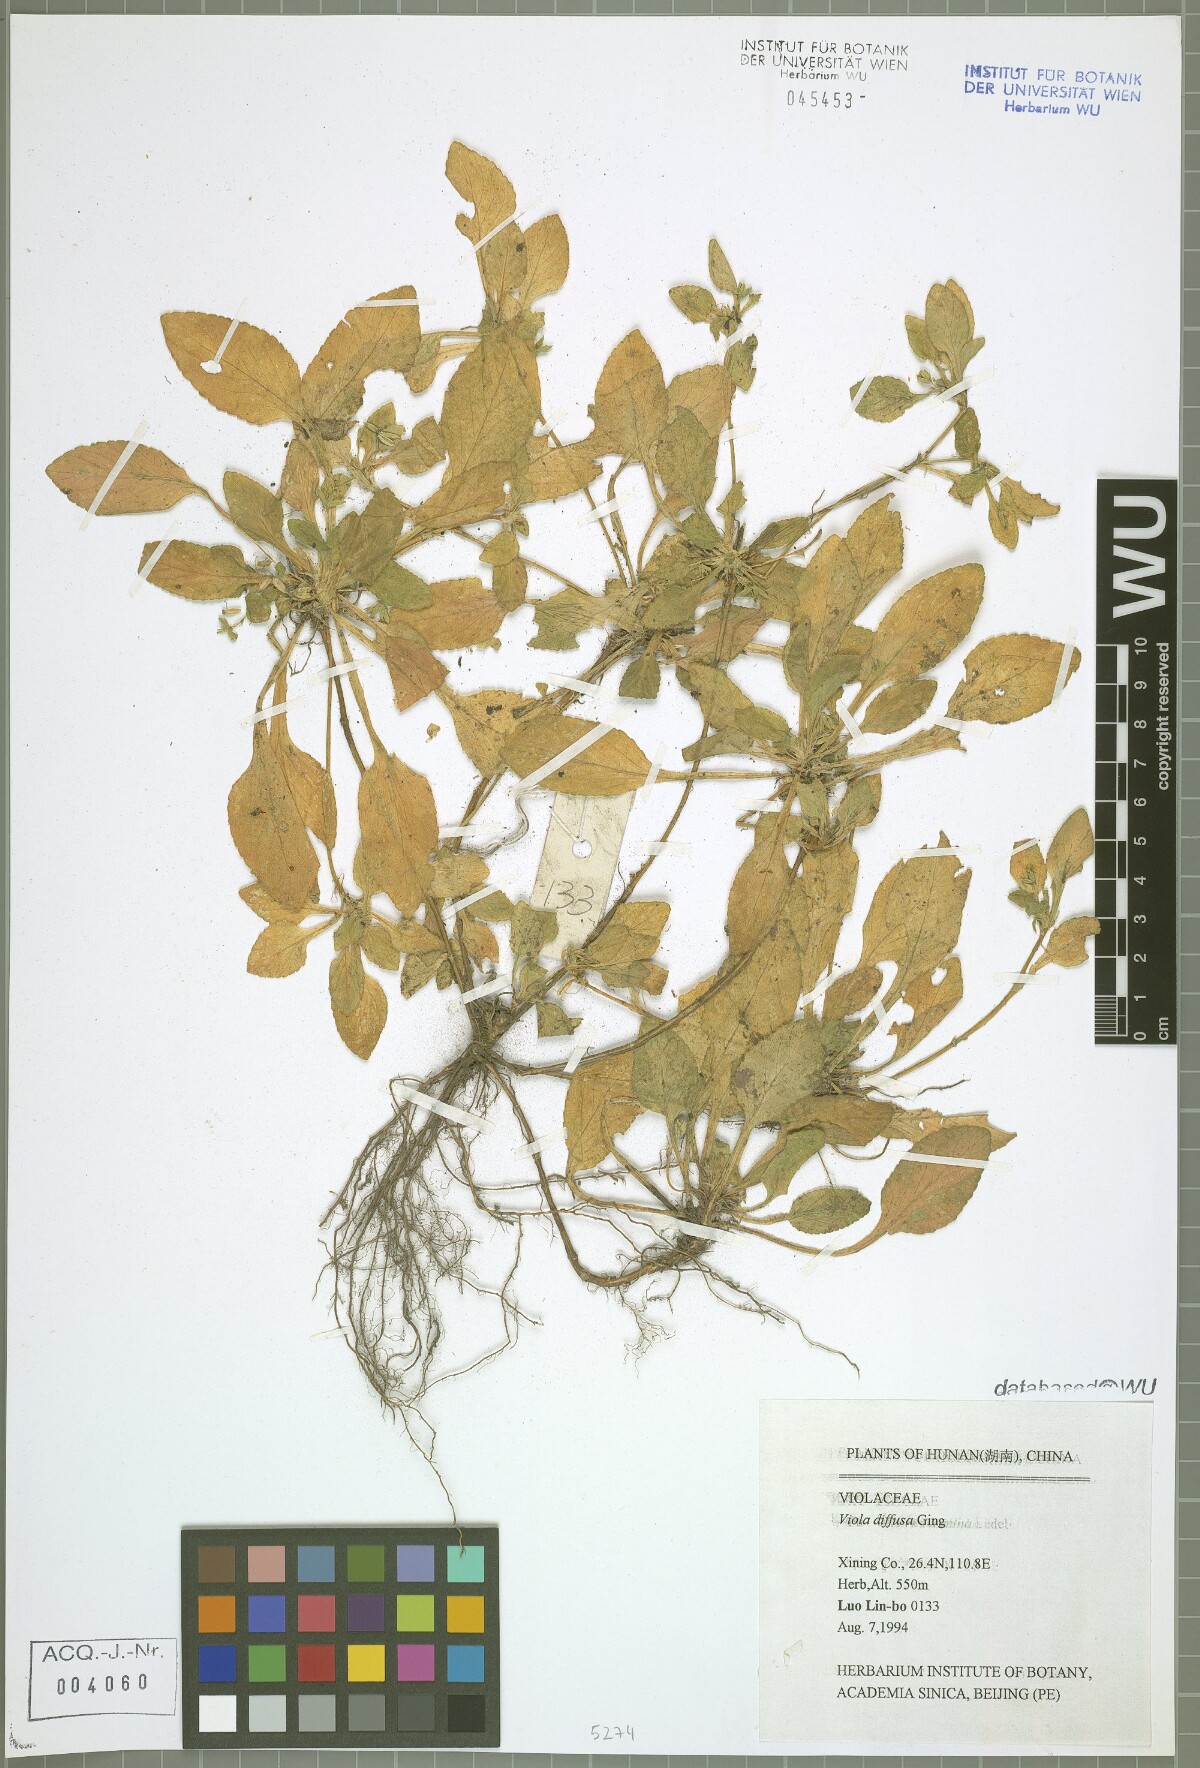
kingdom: Plantae
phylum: Tracheophyta
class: Magnoliopsida
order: Malpighiales
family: Violaceae
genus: Viola
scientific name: Viola diffusa
